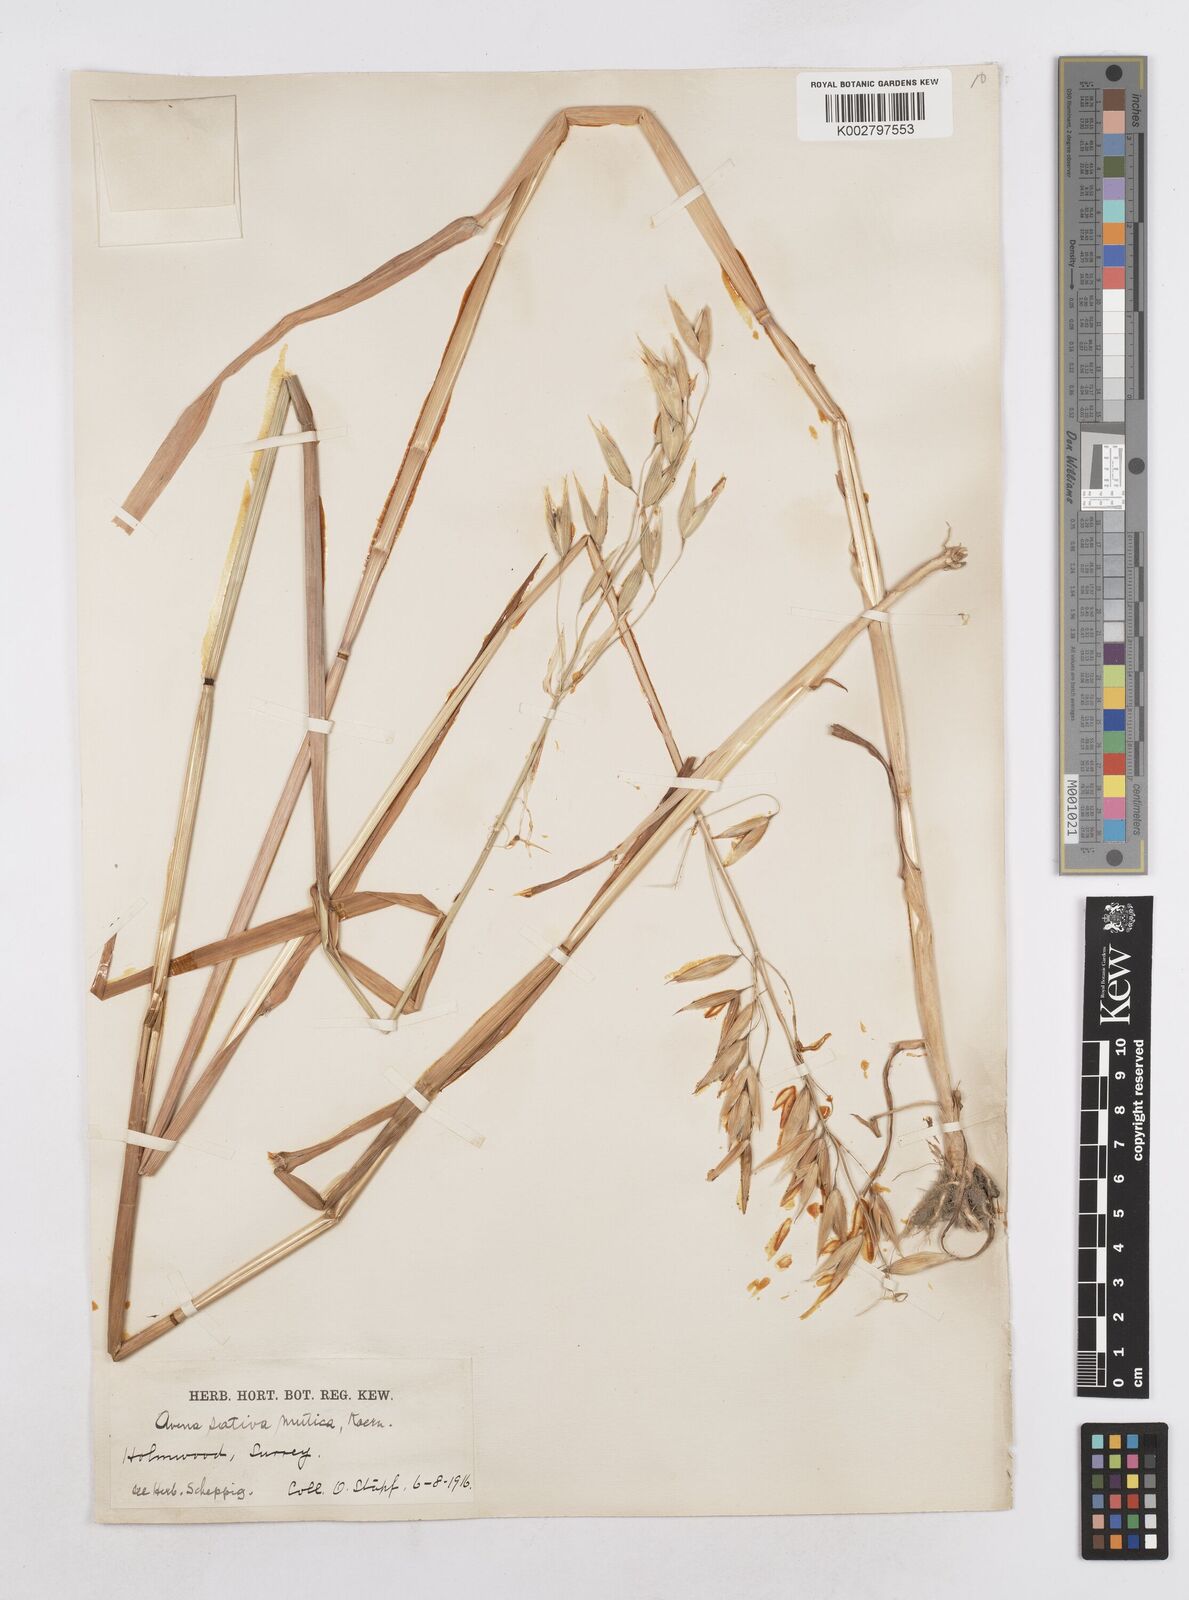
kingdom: Plantae
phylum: Tracheophyta
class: Liliopsida
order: Poales
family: Poaceae
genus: Avena
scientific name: Avena sativa
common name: Oat
